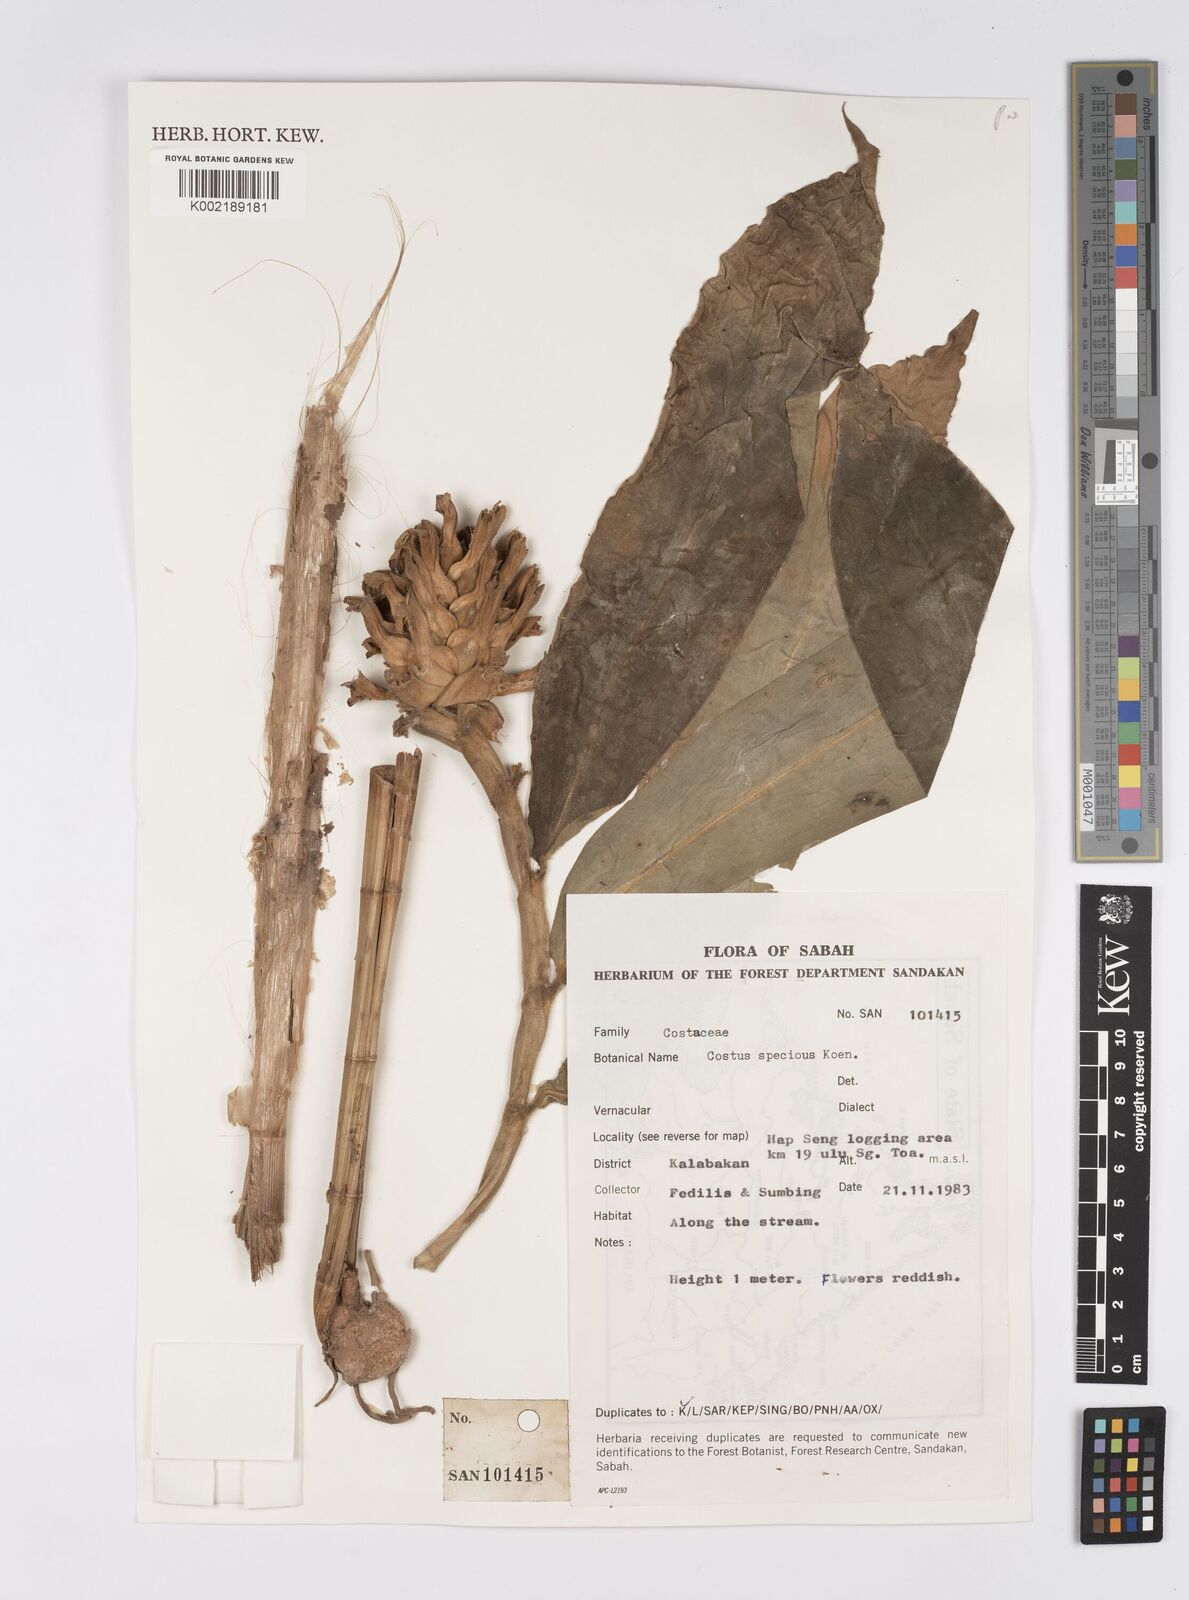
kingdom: Plantae
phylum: Tracheophyta
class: Liliopsida
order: Zingiberales
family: Costaceae
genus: Hellenia
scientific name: Hellenia speciosa
